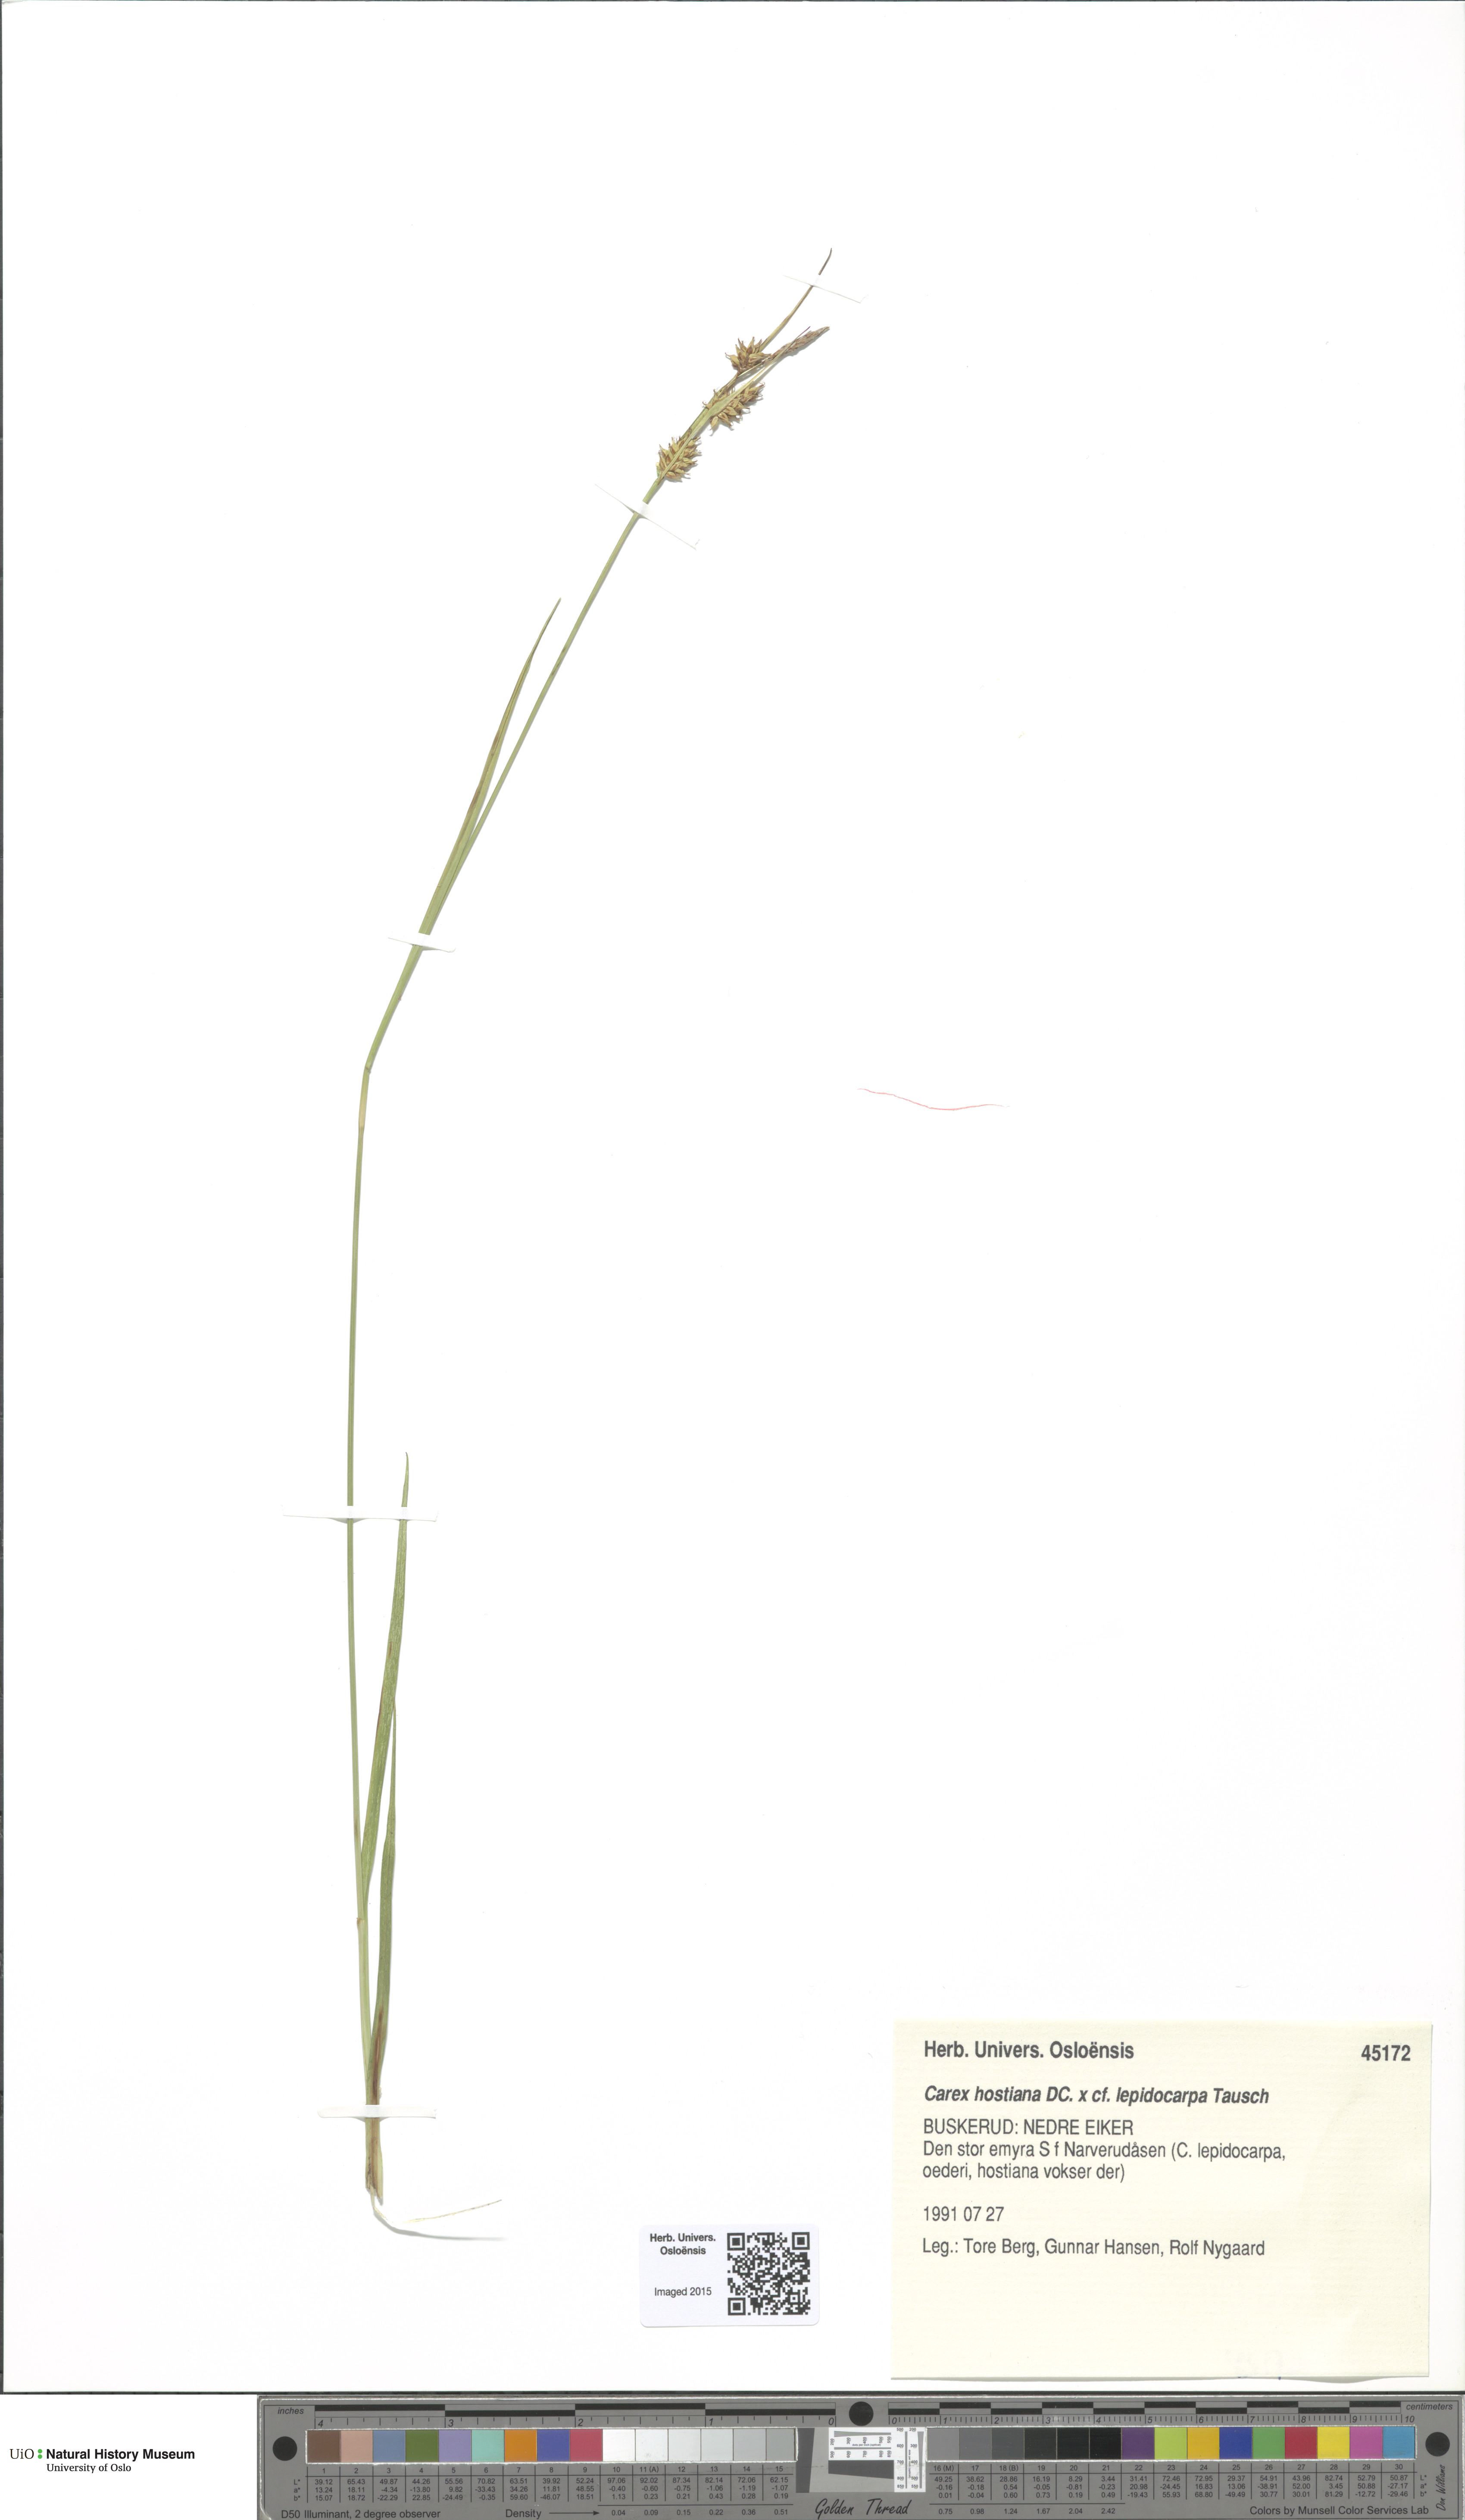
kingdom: Plantae
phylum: Tracheophyta
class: Liliopsida
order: Poales
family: Cyperaceae
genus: Carex
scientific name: Carex
